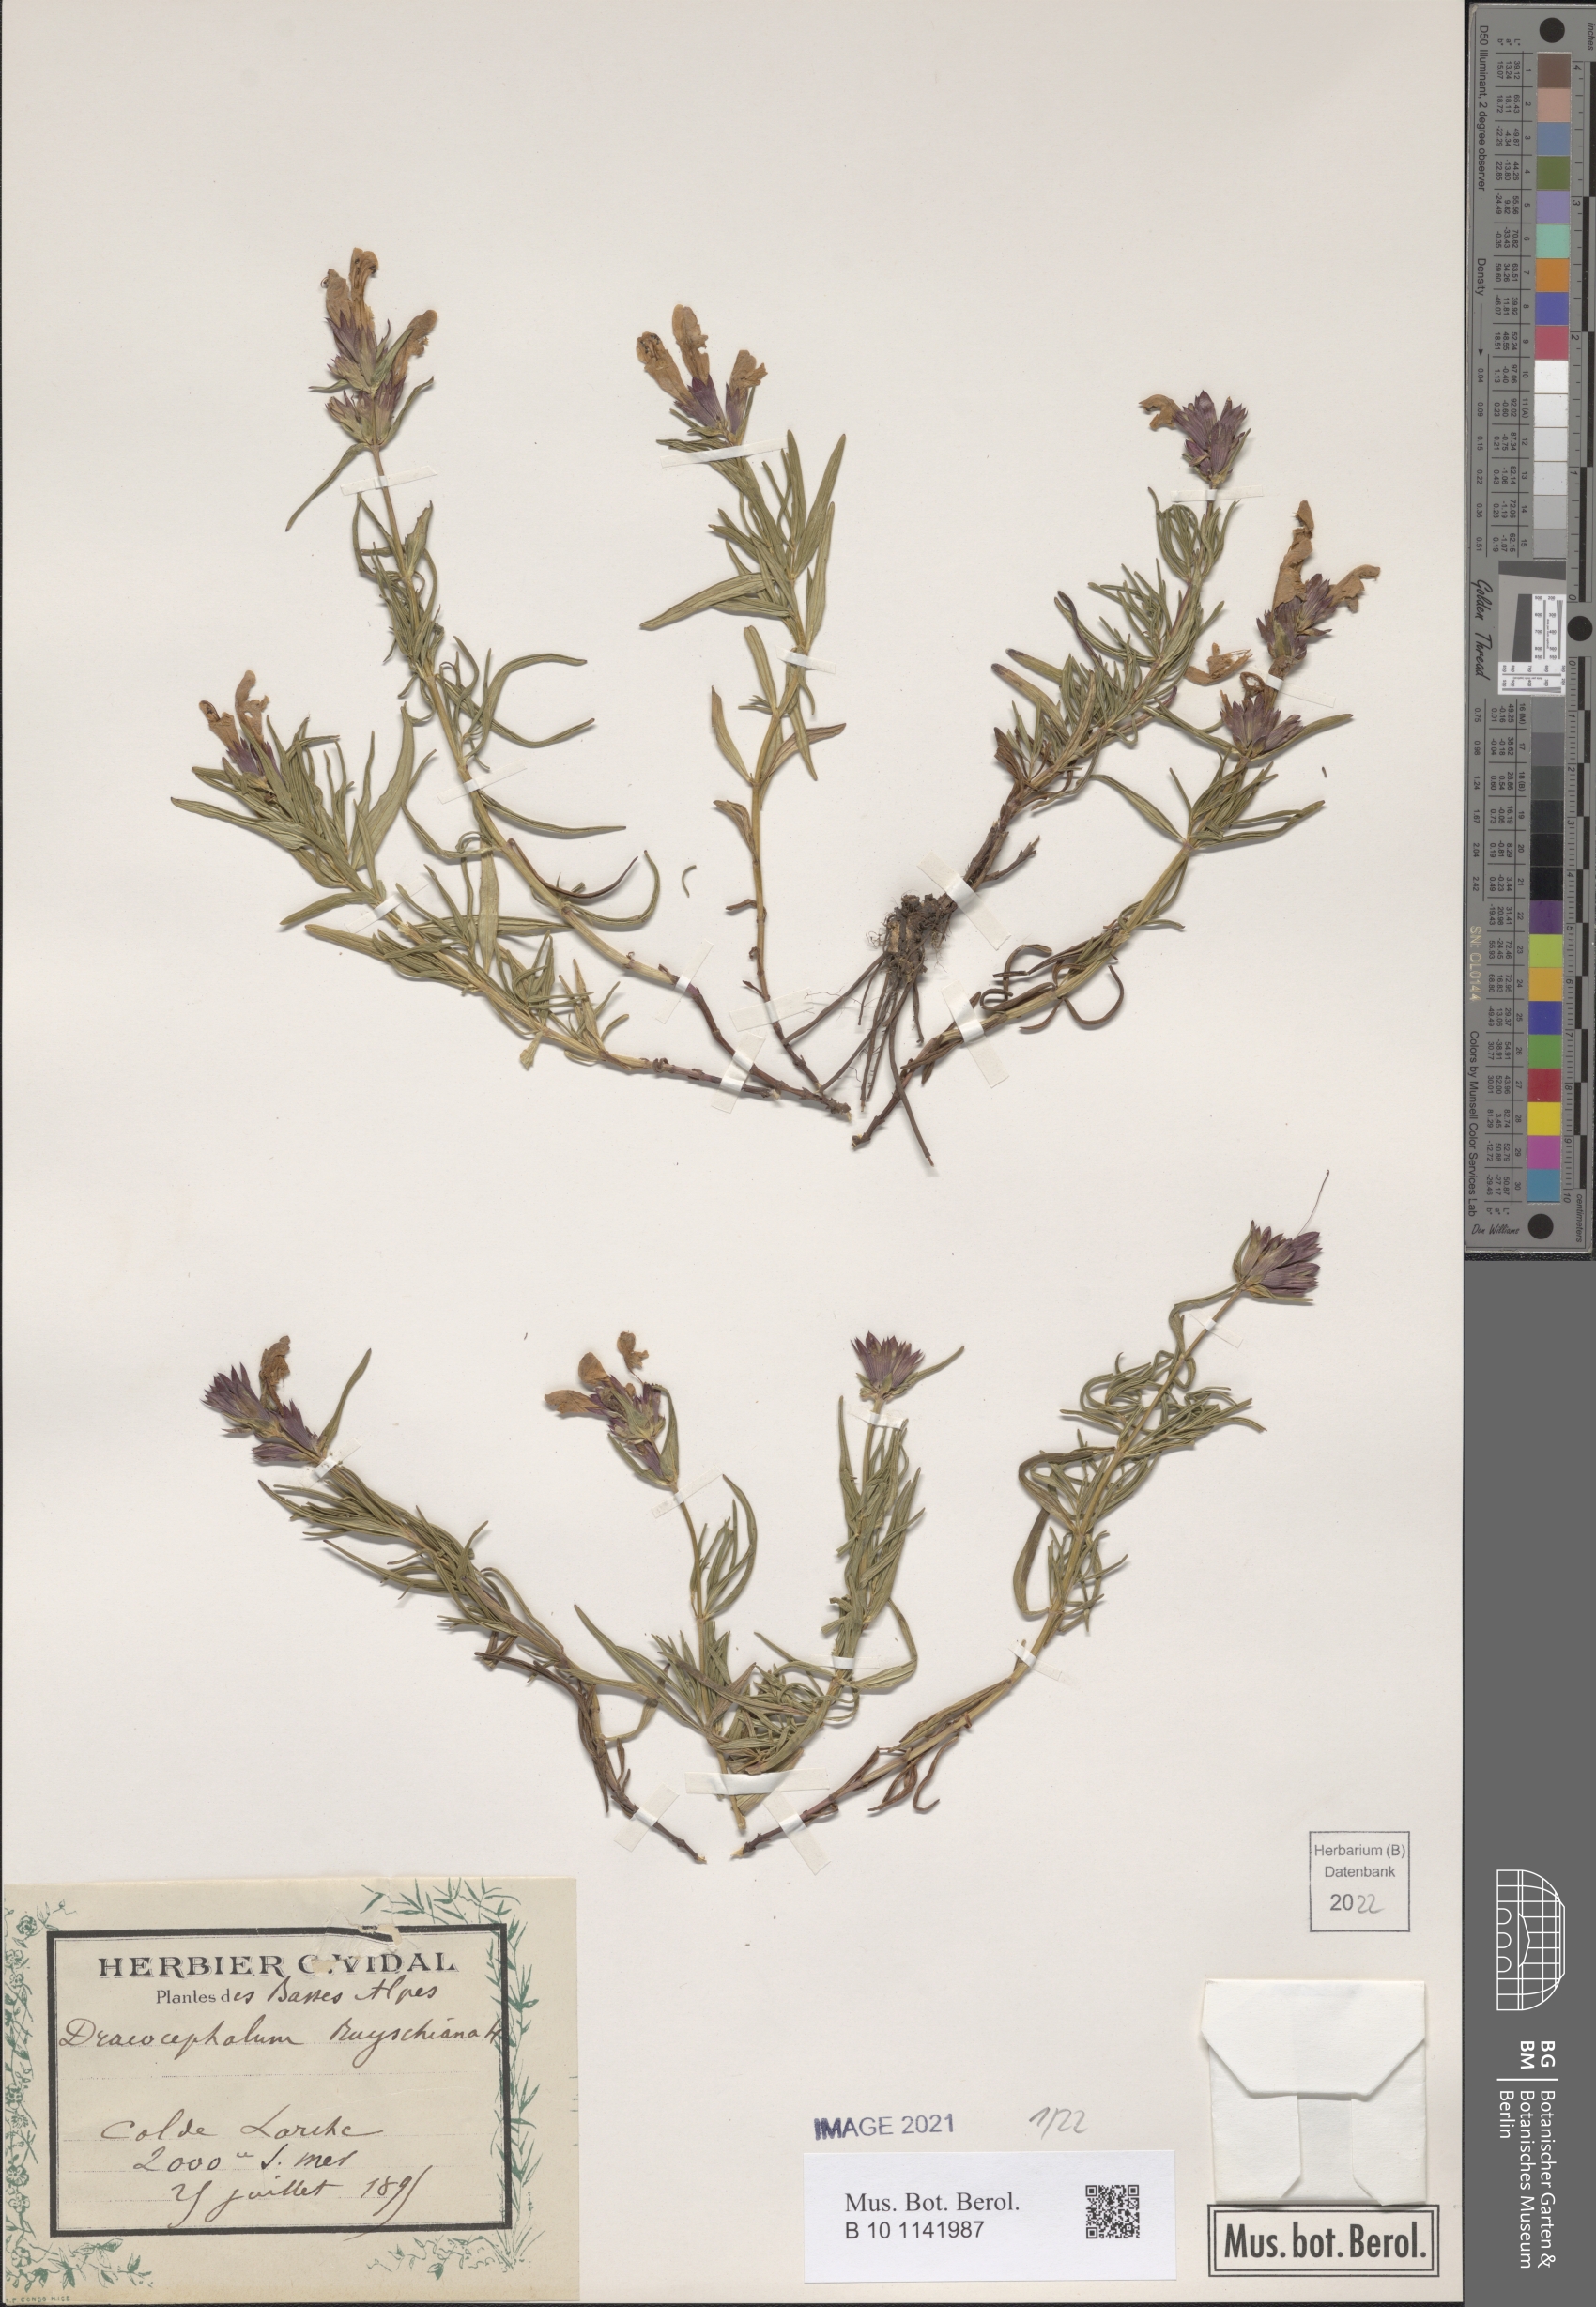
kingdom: Plantae
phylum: Tracheophyta
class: Magnoliopsida
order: Lamiales
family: Lamiaceae
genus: Dracocephalum
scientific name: Dracocephalum ruyschiana
